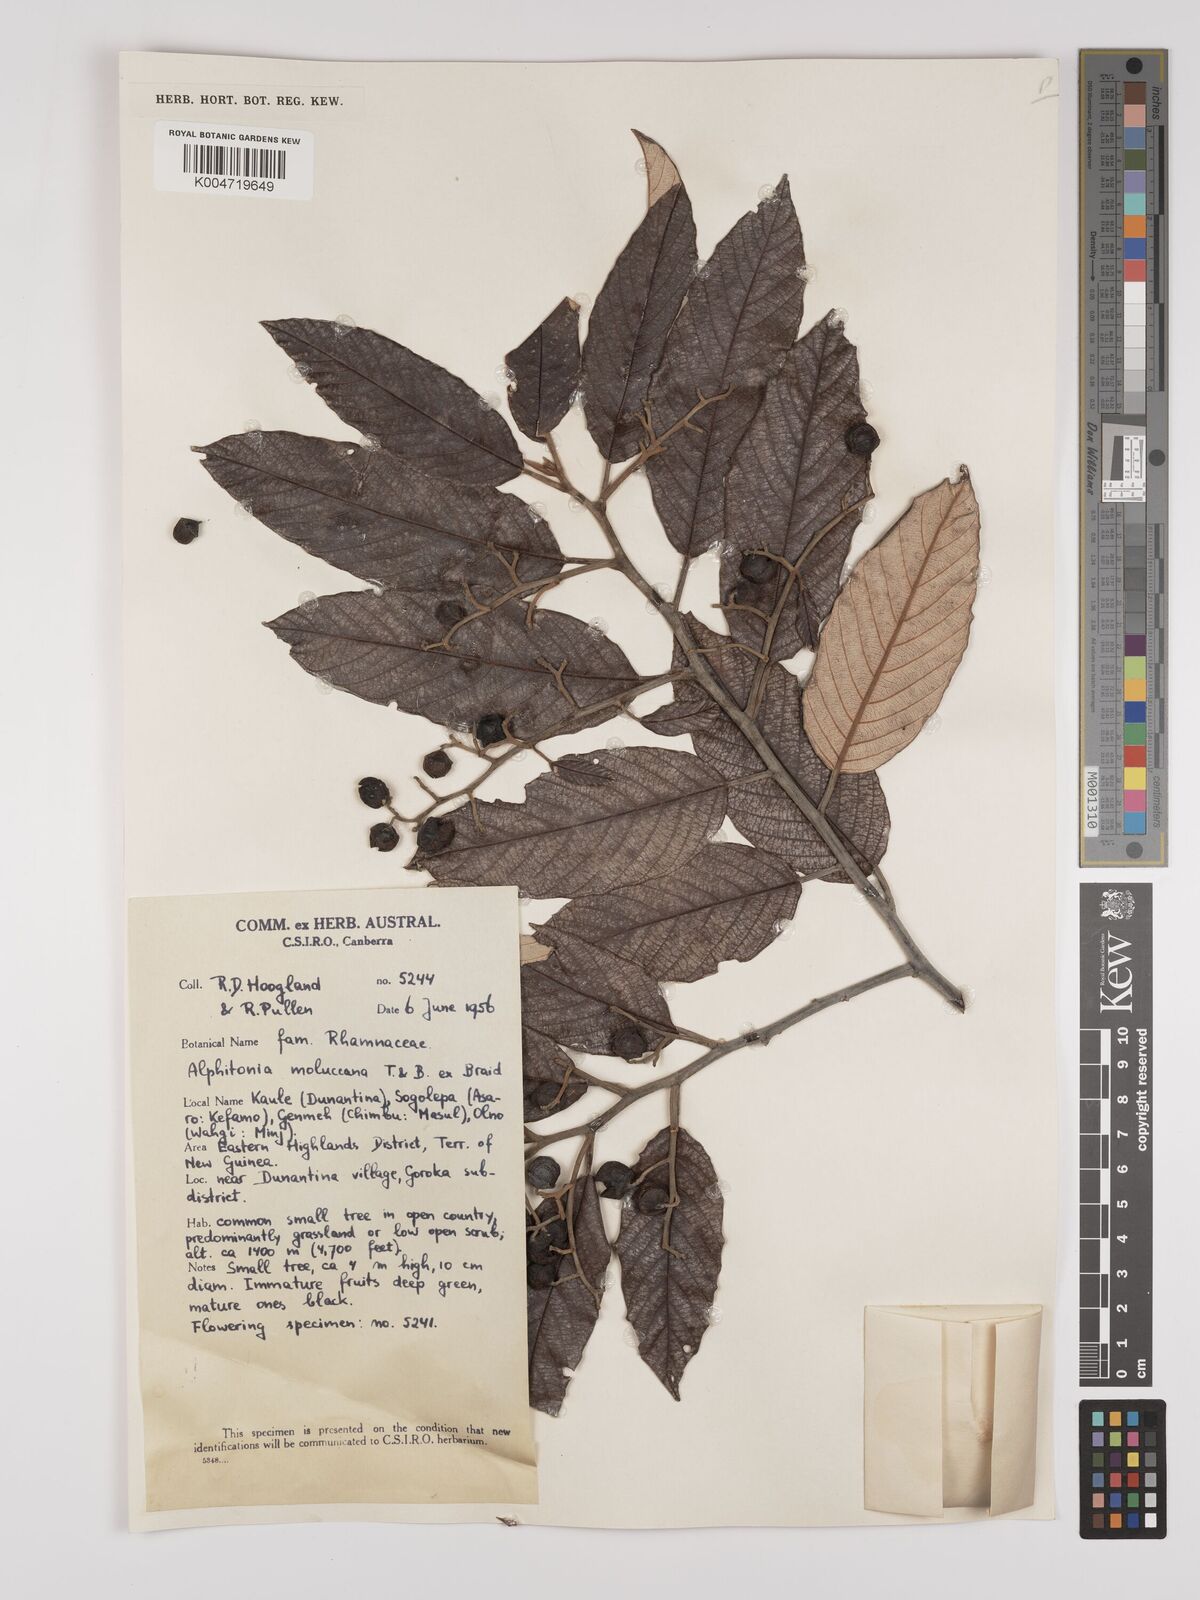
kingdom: Plantae
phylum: Tracheophyta
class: Magnoliopsida
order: Rosales
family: Rhamnaceae
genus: Alphitonia
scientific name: Alphitonia
